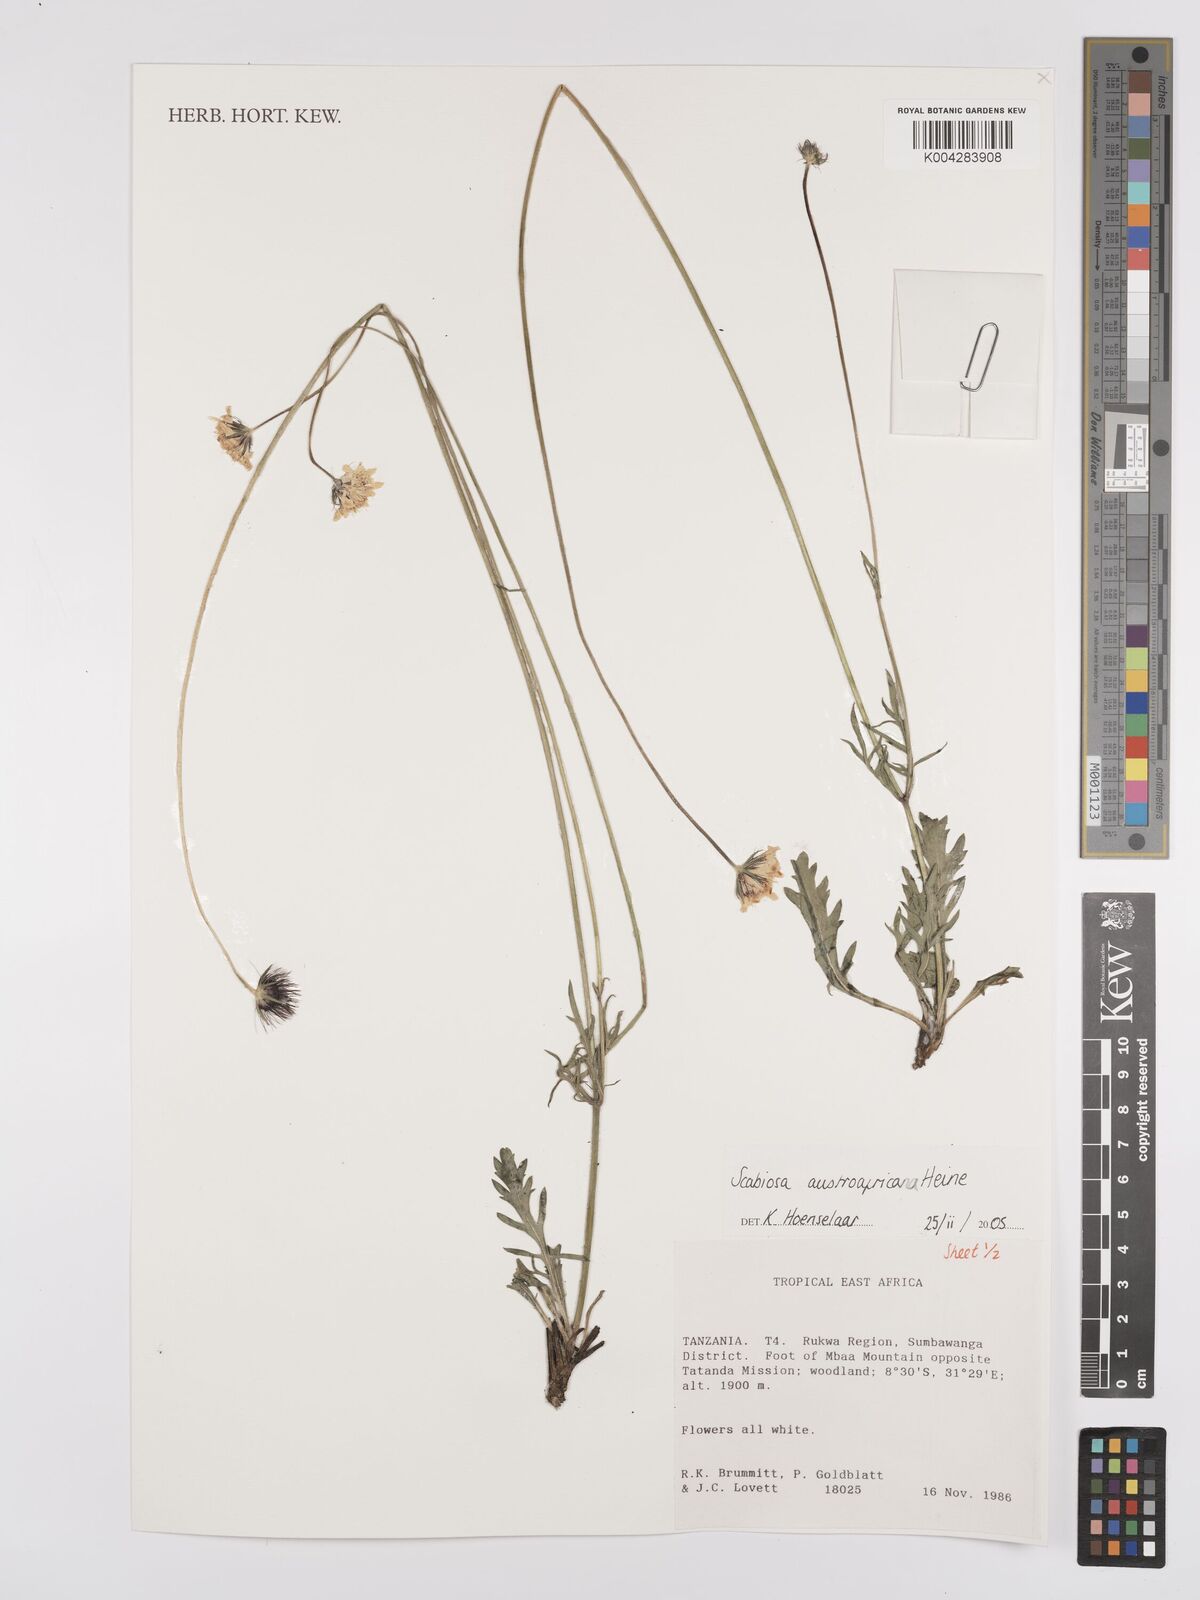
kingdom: Plantae
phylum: Tracheophyta
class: Magnoliopsida
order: Dipsacales
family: Caprifoliaceae
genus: Scabiosa
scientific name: Scabiosa austroafricana
